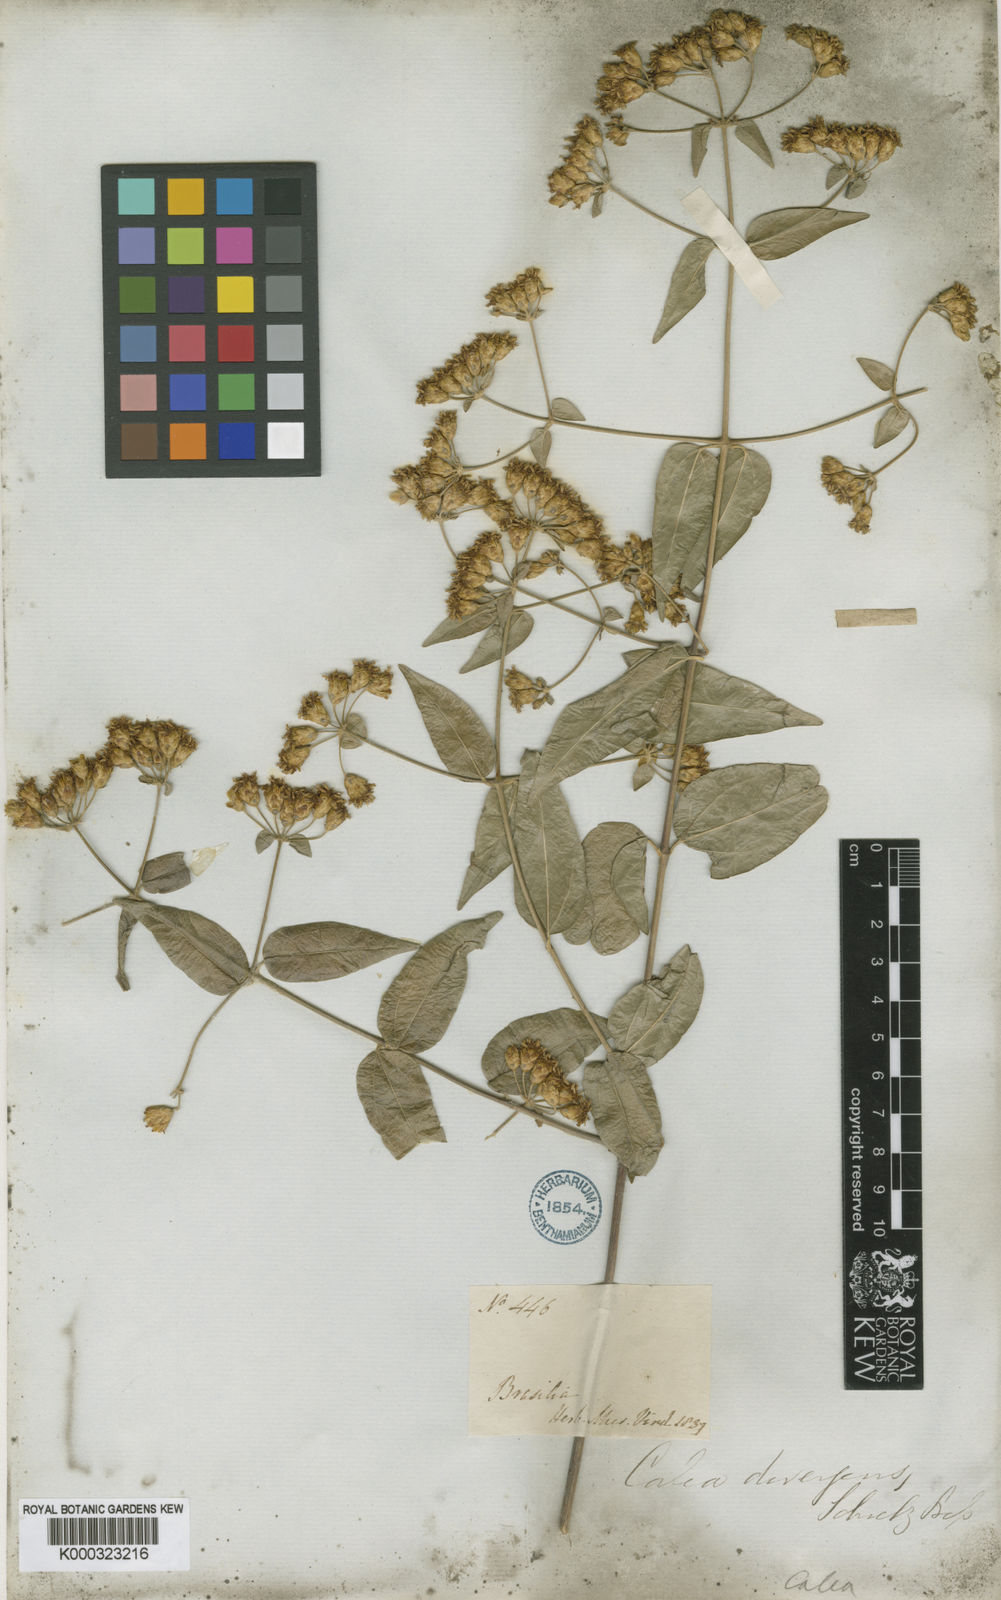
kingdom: Plantae
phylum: Tracheophyta
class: Magnoliopsida
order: Asterales
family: Asteraceae
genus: Calea
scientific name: Calea divergens
